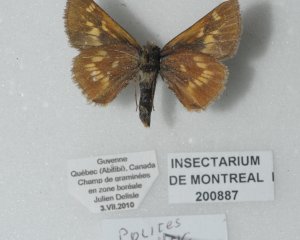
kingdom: Animalia
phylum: Arthropoda
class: Insecta
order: Lepidoptera
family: Hesperiidae
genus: Polites
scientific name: Polites
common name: Long Dash Skipper
